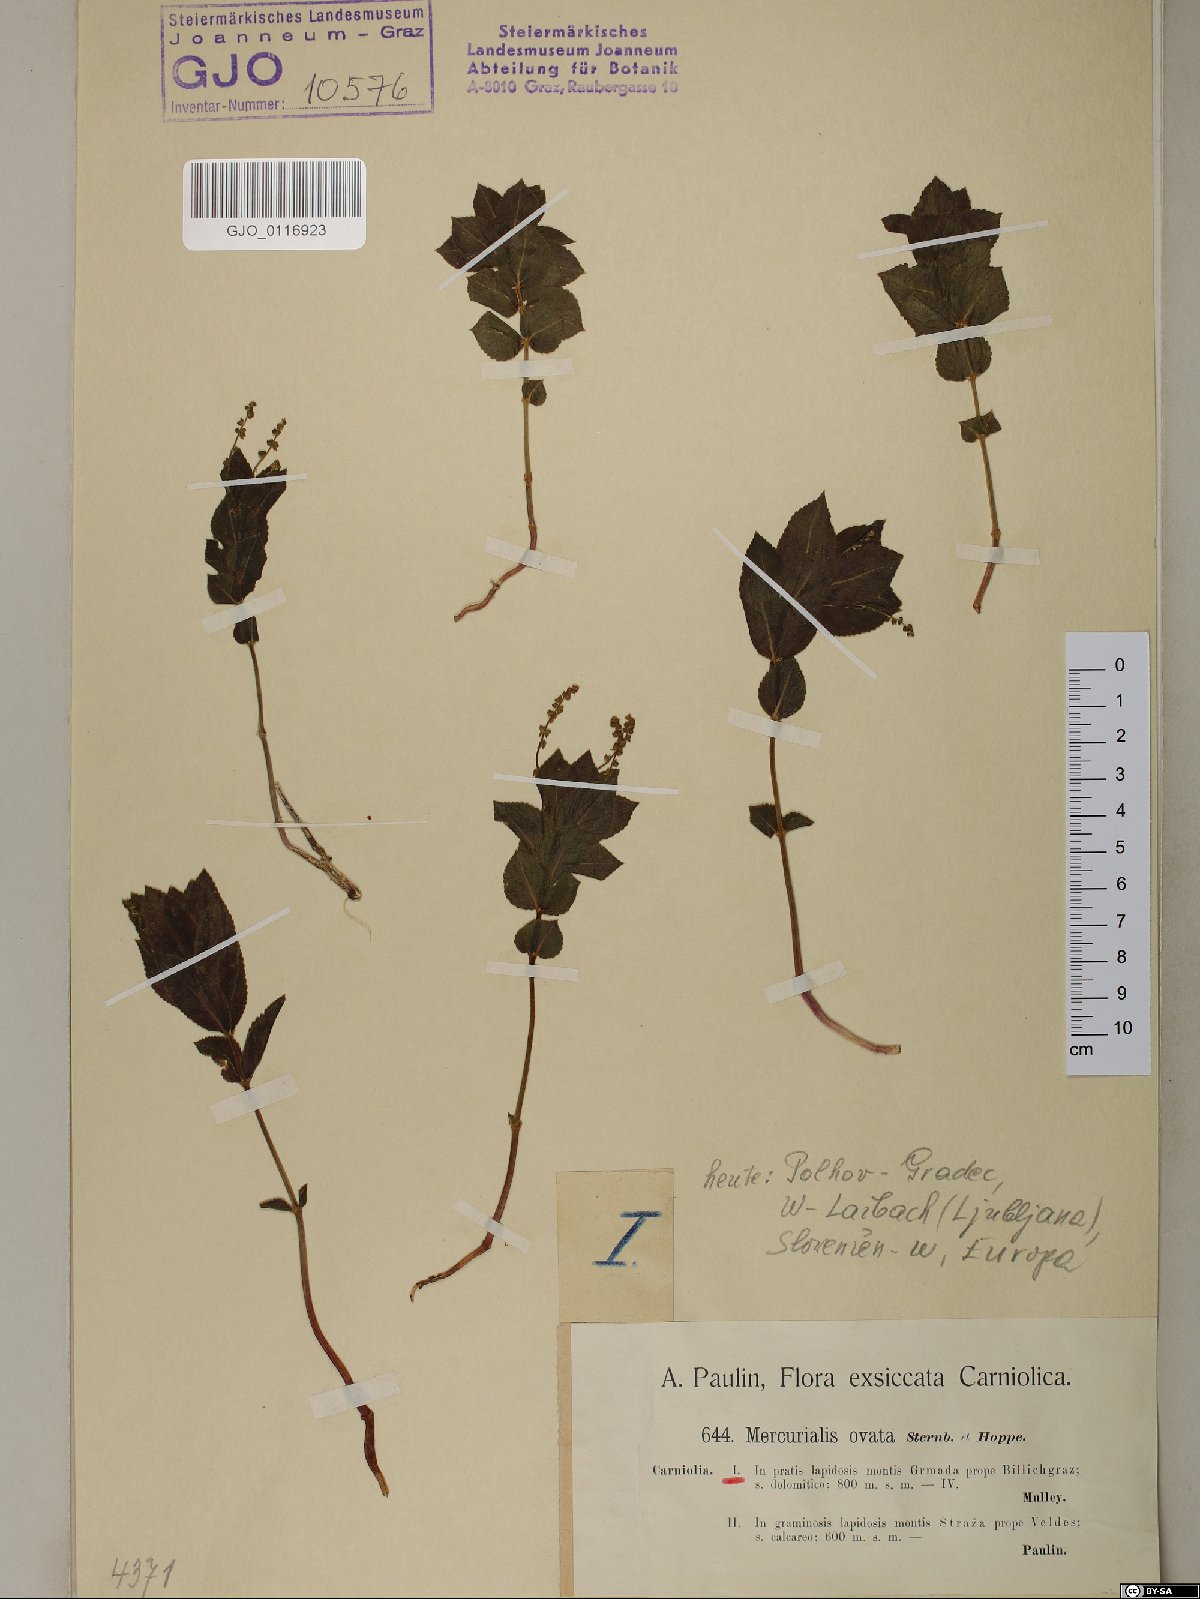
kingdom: Plantae
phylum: Tracheophyta
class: Magnoliopsida
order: Malpighiales
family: Euphorbiaceae
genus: Mercurialis
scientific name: Mercurialis ovata
